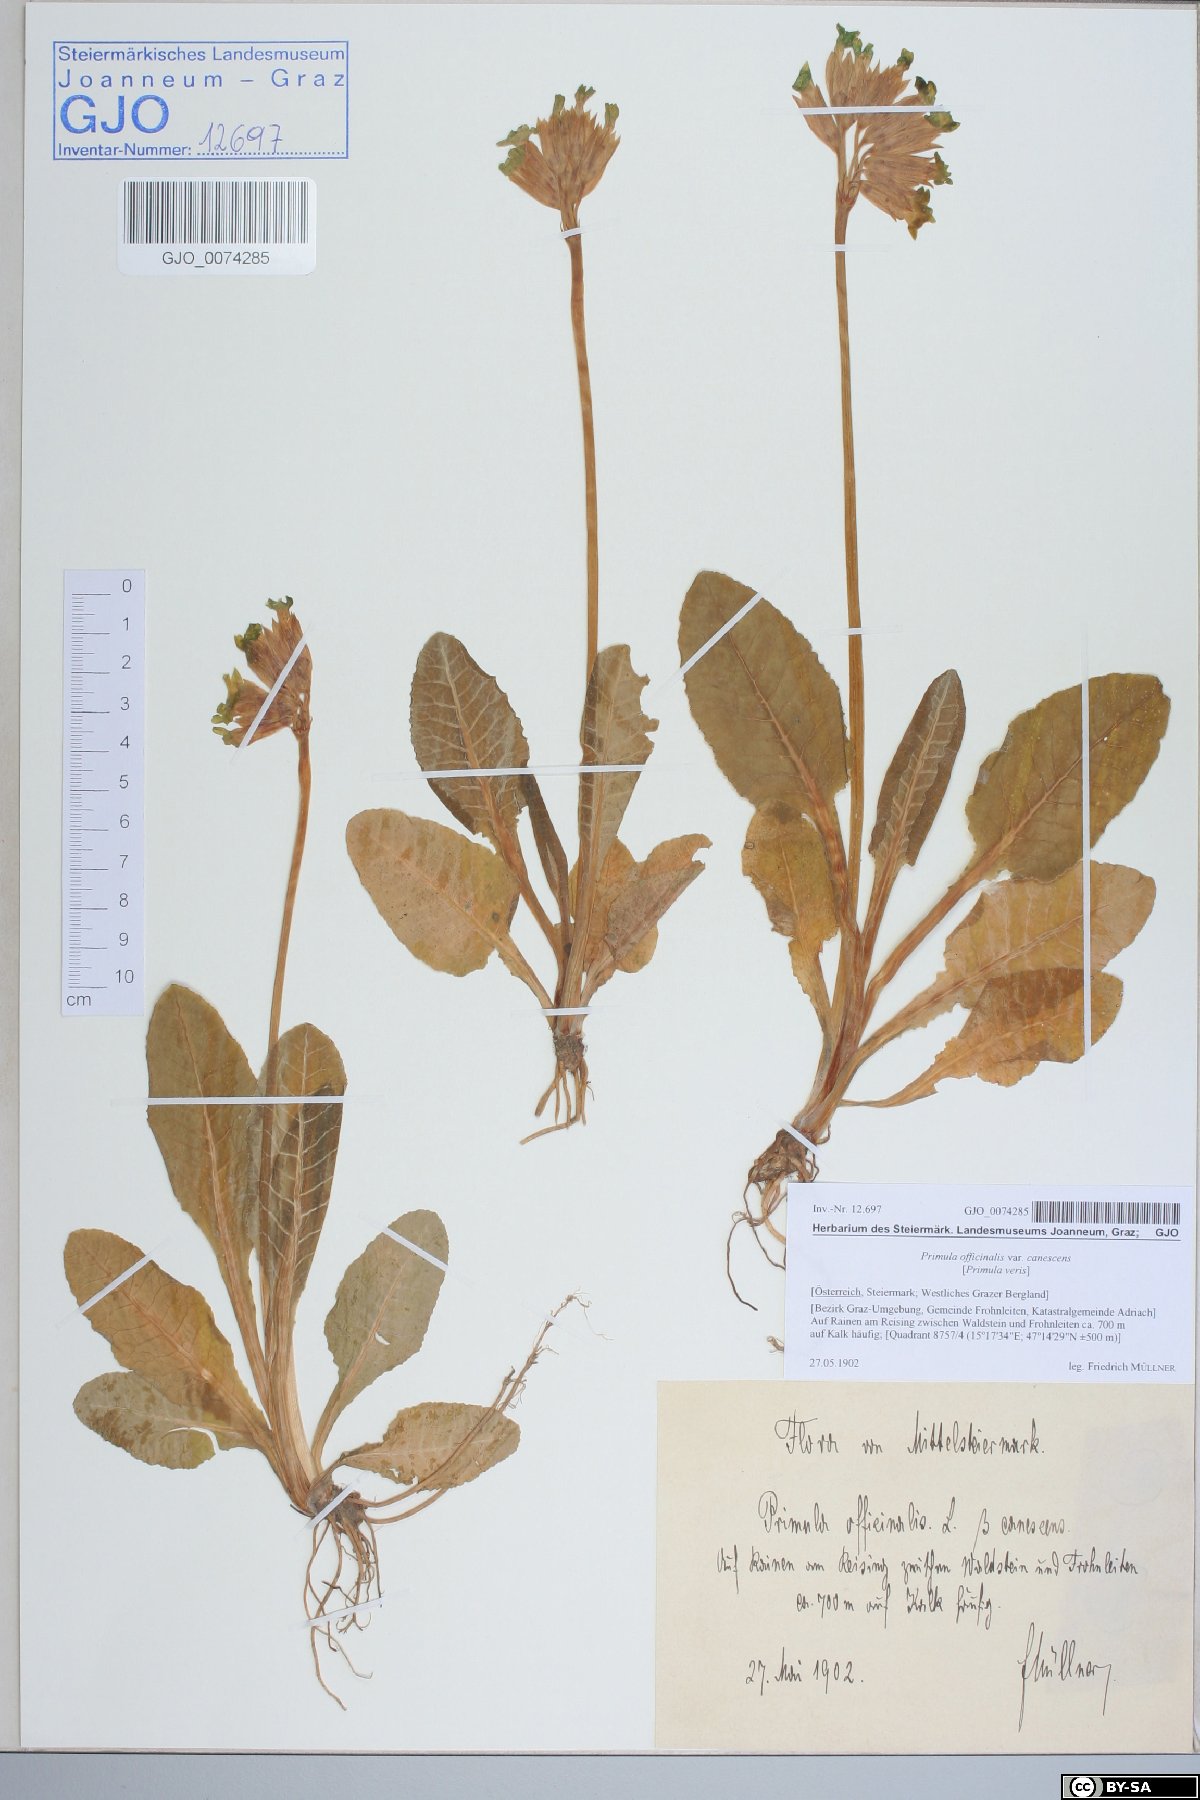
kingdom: Plantae
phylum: Tracheophyta
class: Magnoliopsida
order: Ericales
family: Primulaceae
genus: Primula
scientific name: Primula veris
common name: Cowslip
